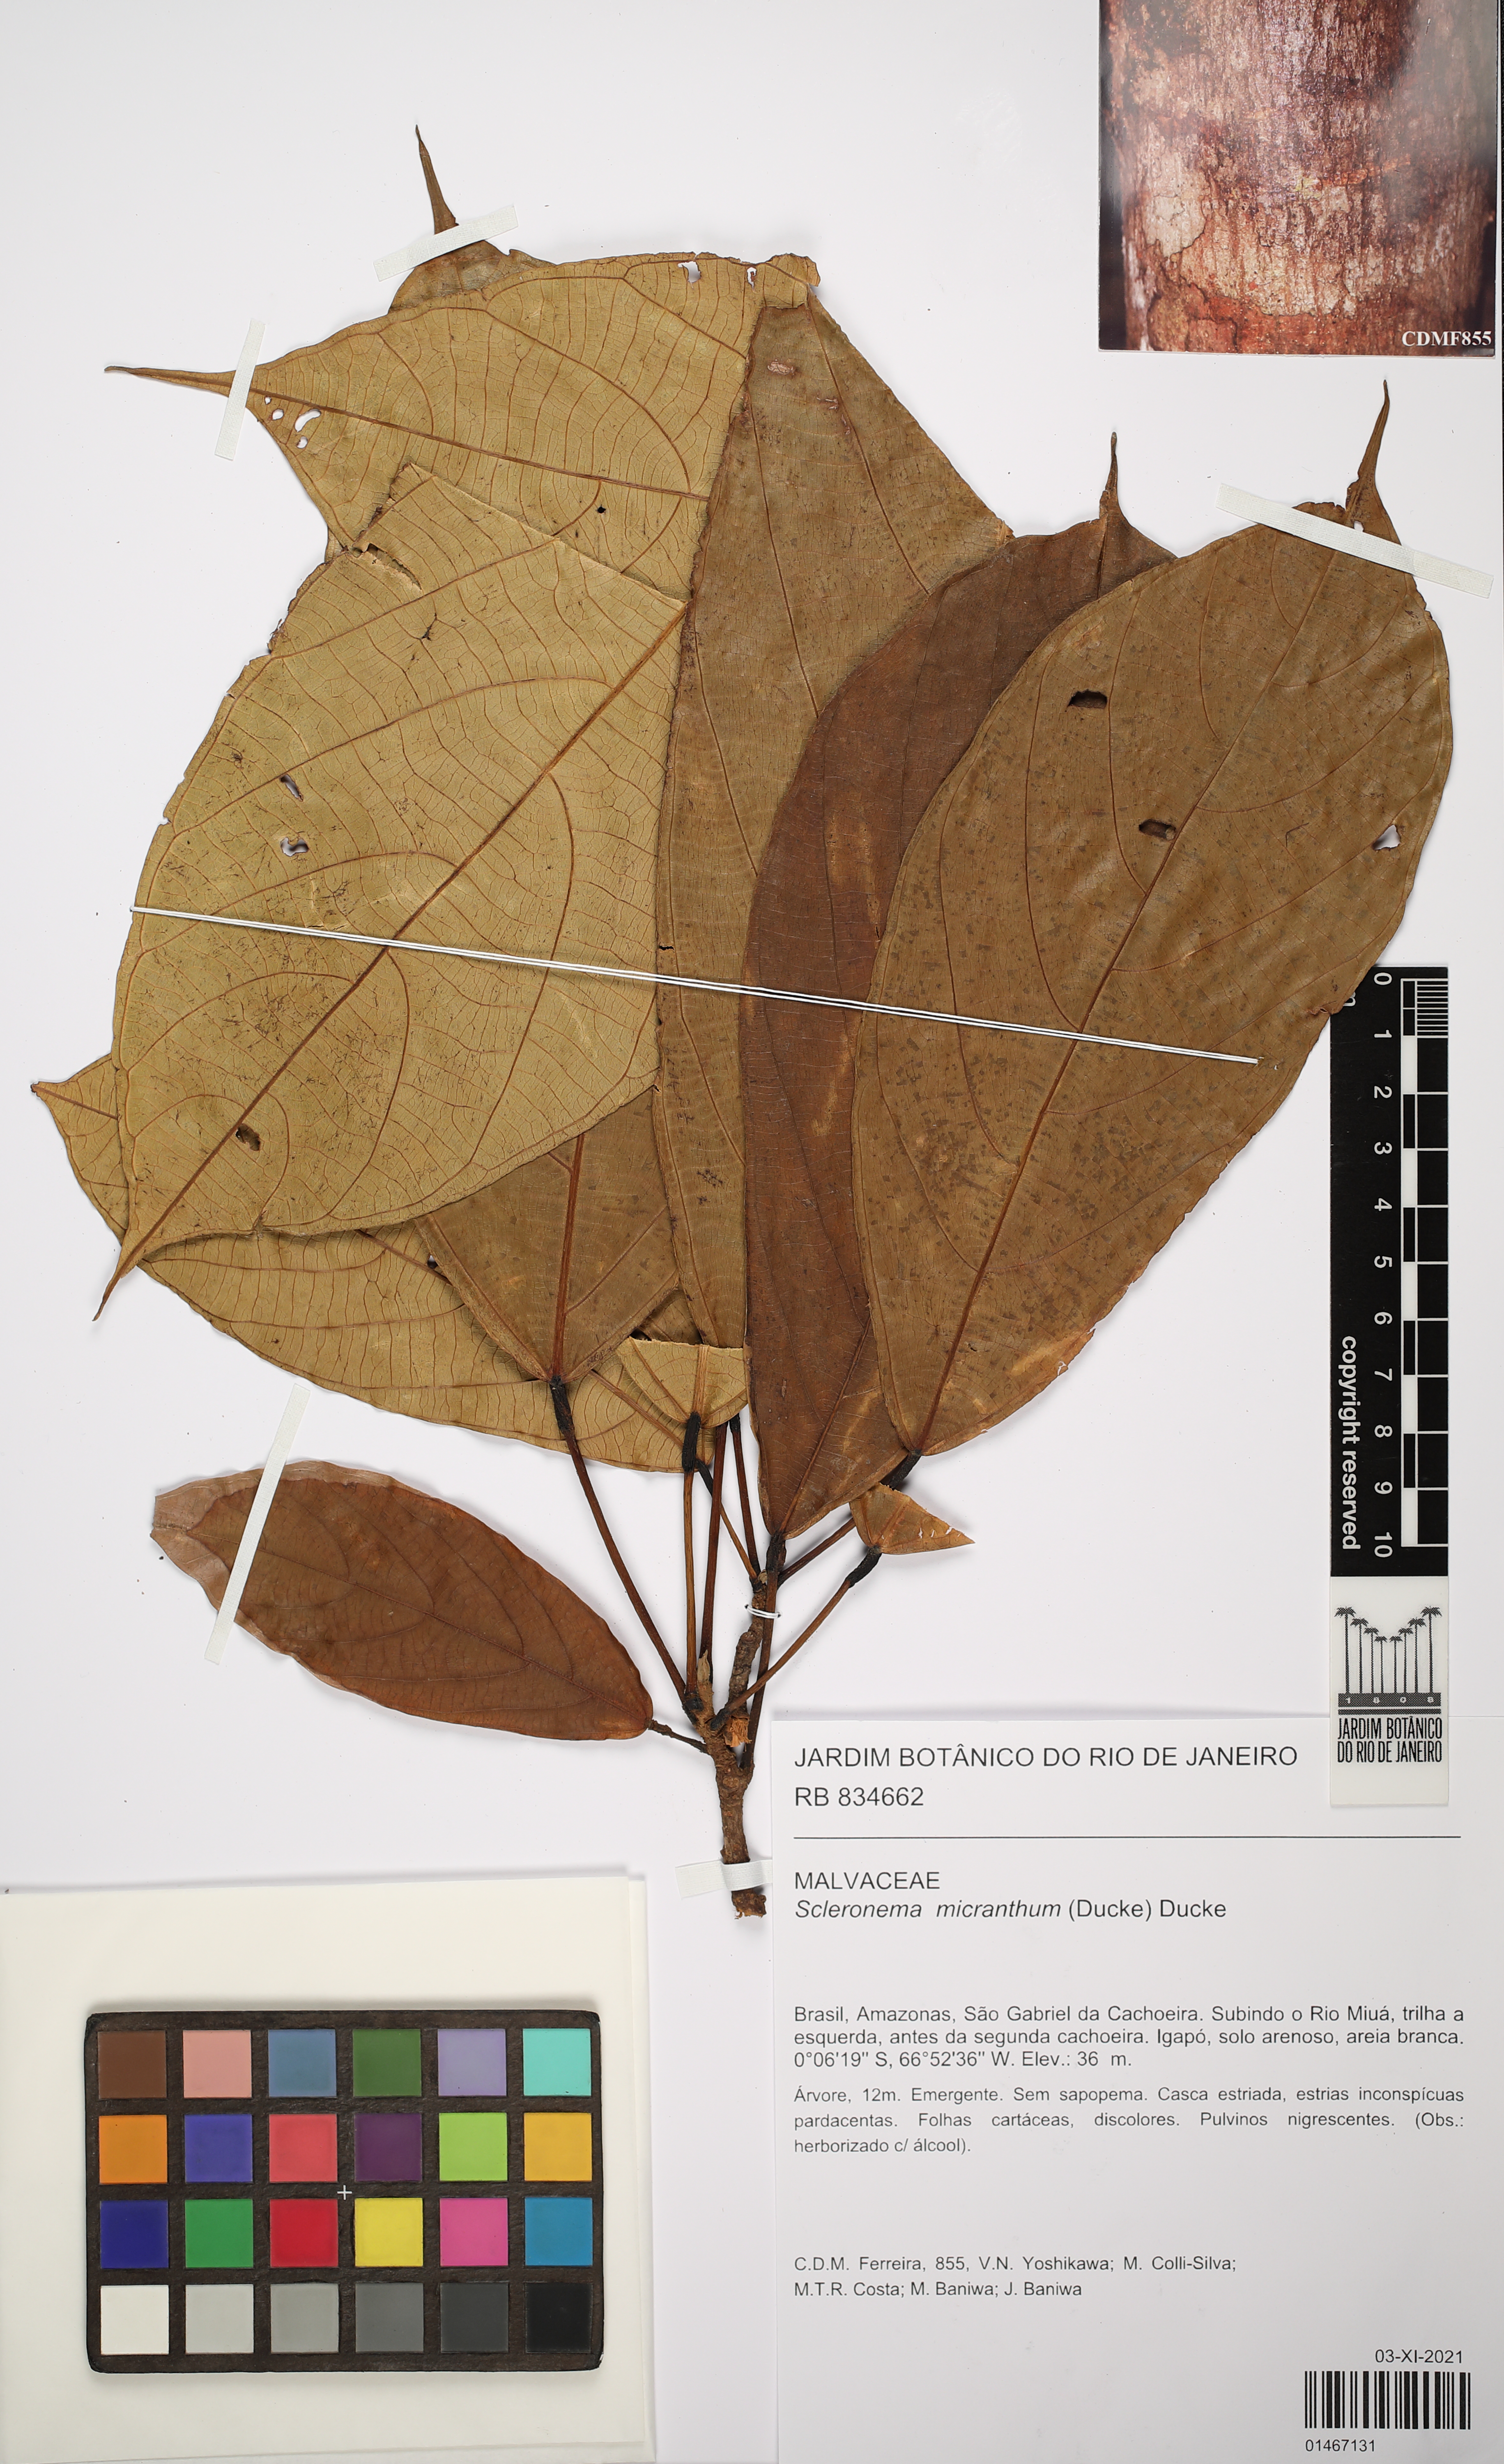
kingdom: Plantae
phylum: Tracheophyta
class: Magnoliopsida
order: Malvales
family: Malvaceae
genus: Scleronema
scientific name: Scleronema micranthum
